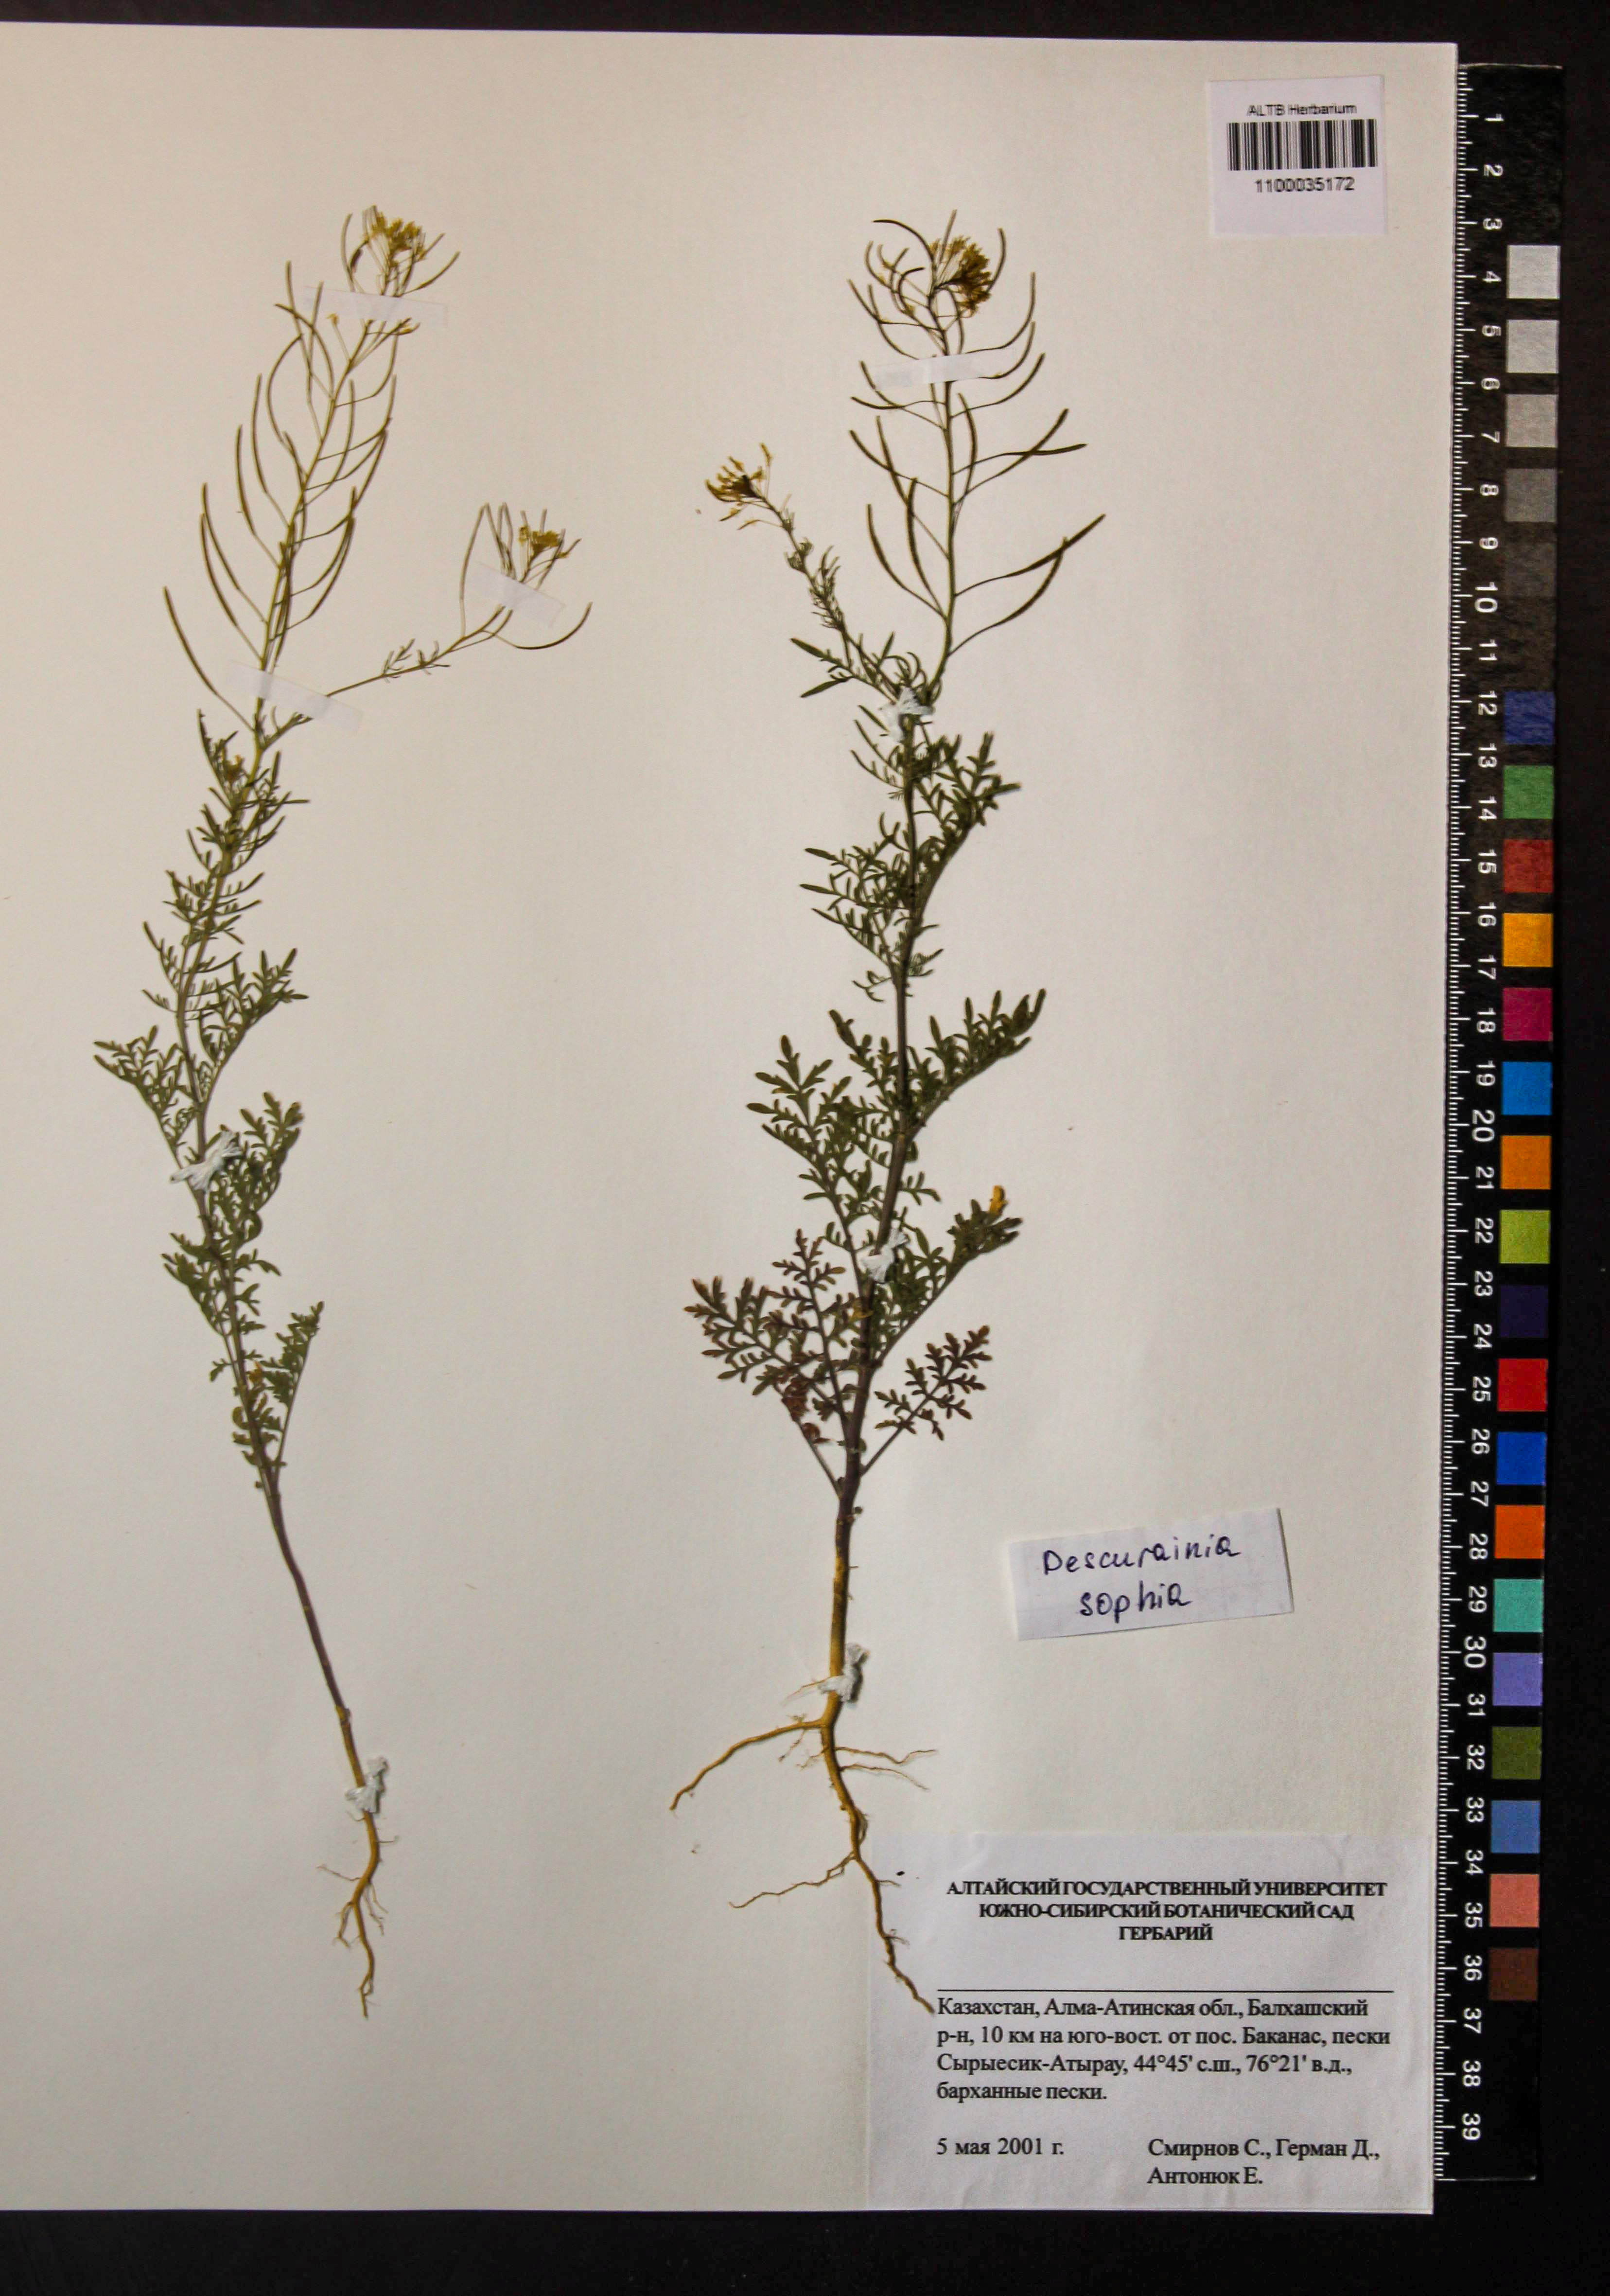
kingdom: Plantae
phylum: Tracheophyta
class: Magnoliopsida
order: Brassicales
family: Brassicaceae
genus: Descurainia
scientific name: Descurainia sophia
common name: Flixweed
